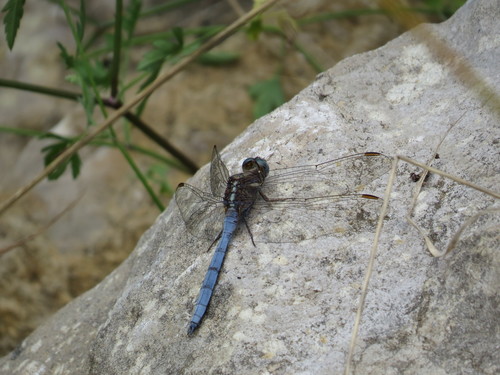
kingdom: Animalia
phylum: Arthropoda
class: Insecta
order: Odonata
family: Libellulidae
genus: Orthetrum
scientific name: Orthetrum chrysostigma
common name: Epaulet skimmer
